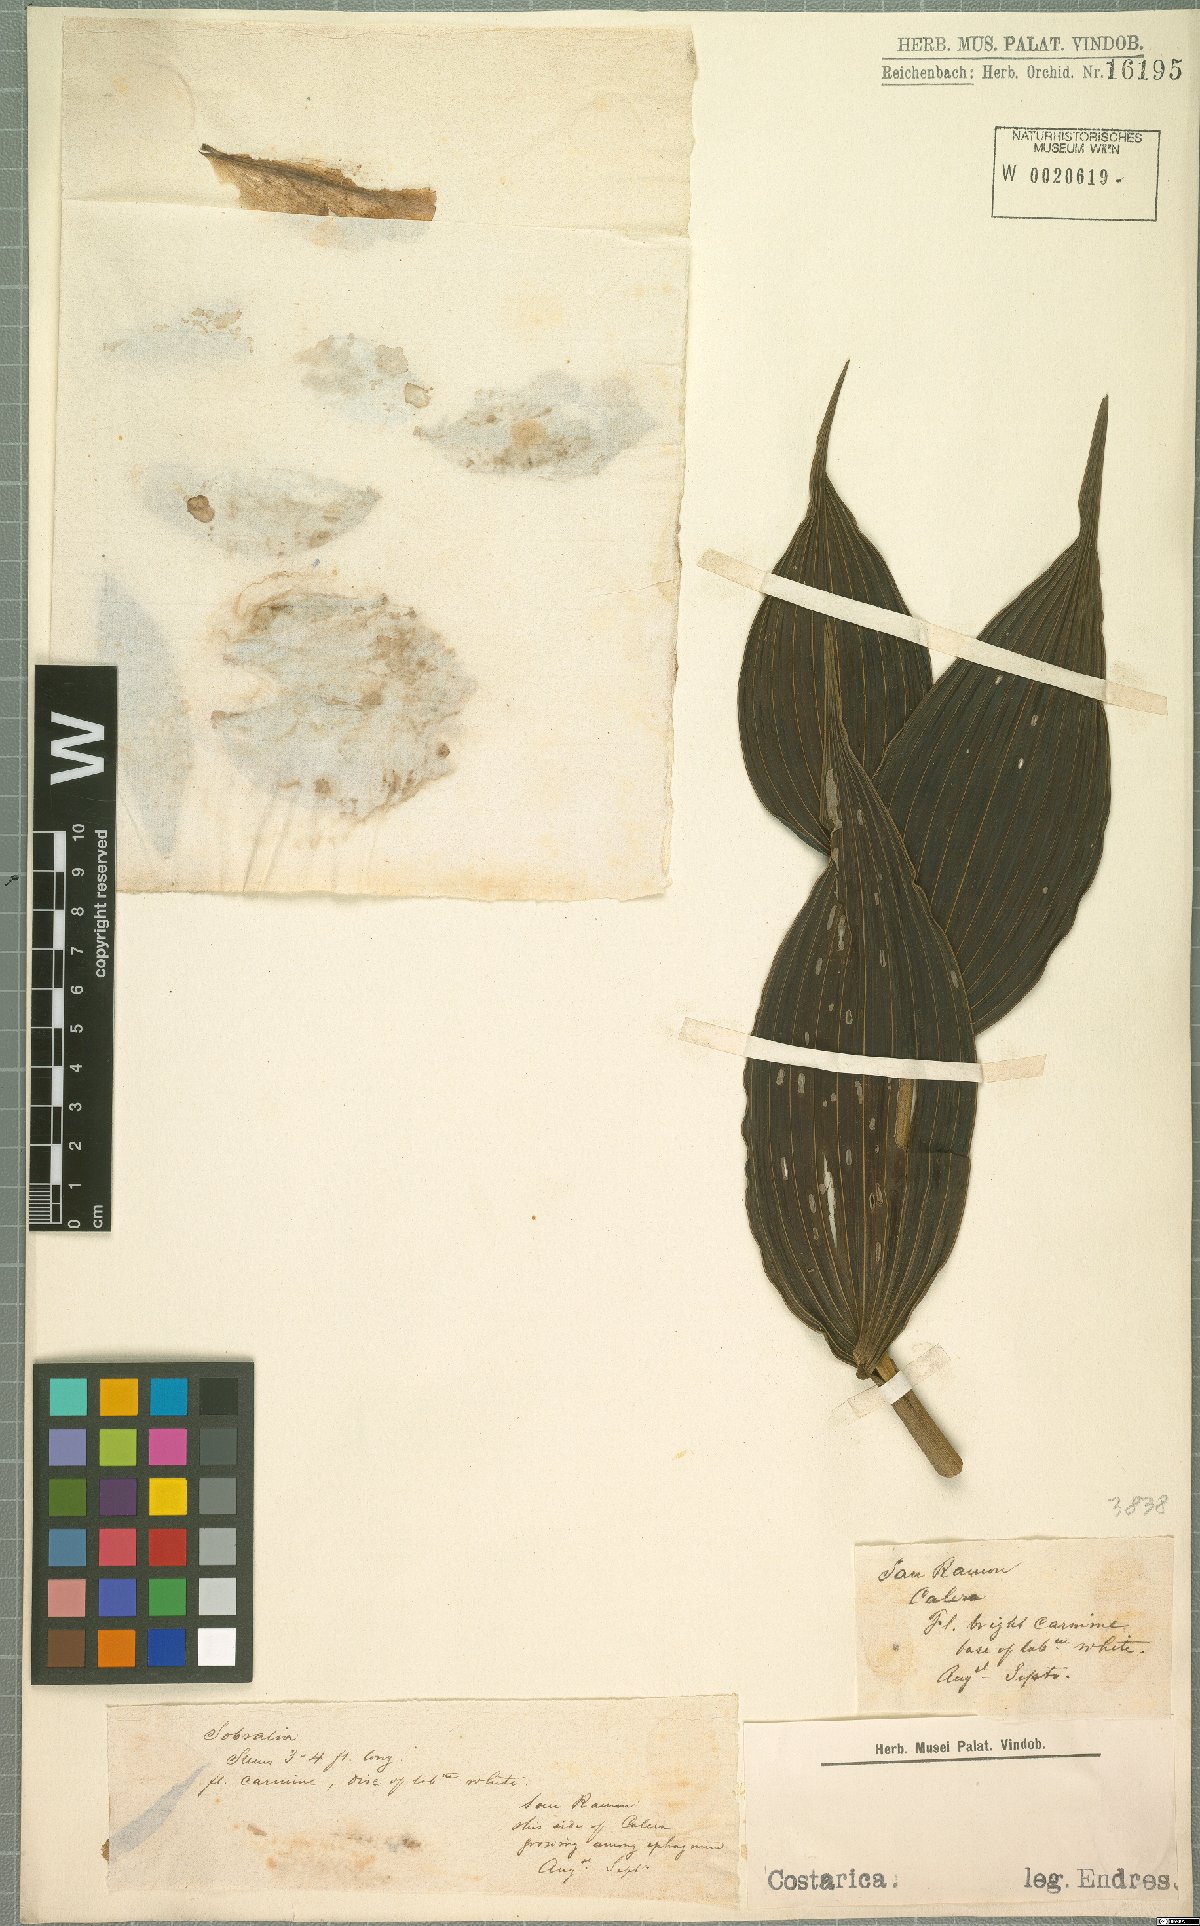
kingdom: Plantae
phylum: Tracheophyta
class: Liliopsida
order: Asparagales
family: Orchidaceae
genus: Sobralia
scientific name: Sobralia
